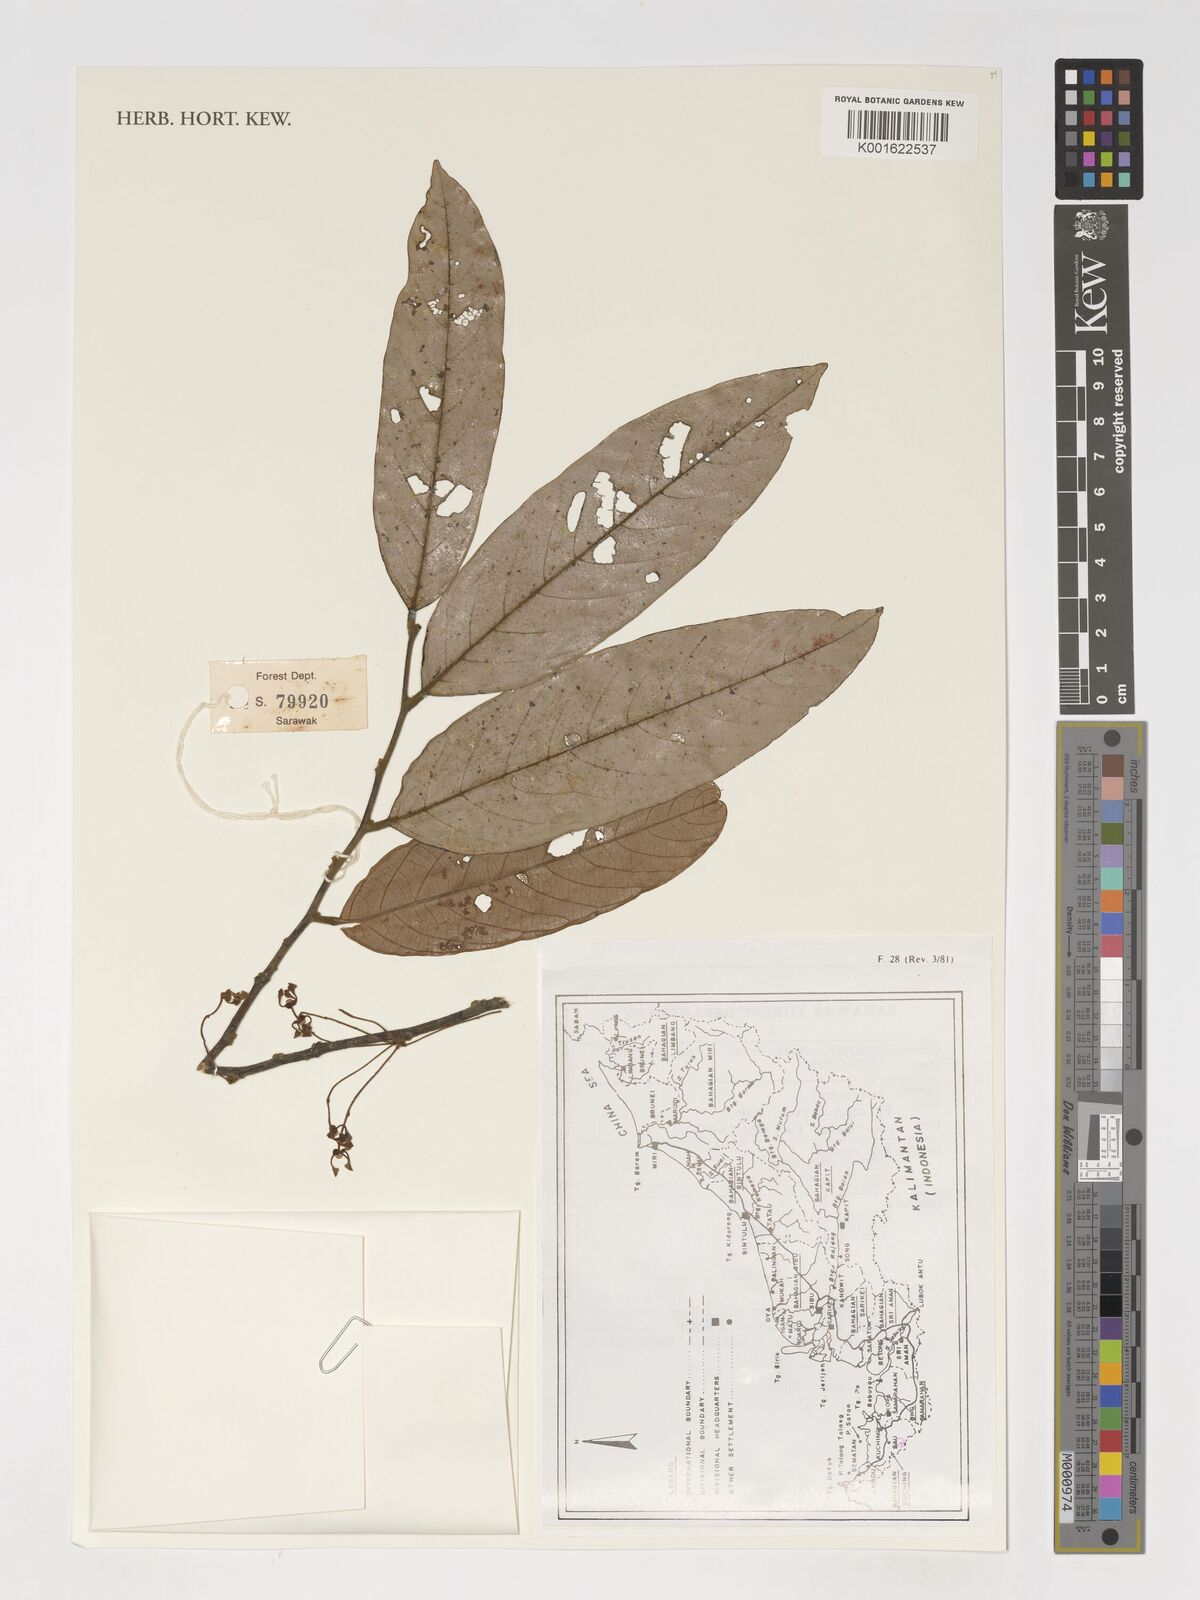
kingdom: Plantae
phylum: Tracheophyta
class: Magnoliopsida
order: Magnoliales
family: Annonaceae
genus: Friesodielsia
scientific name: Friesodielsia
